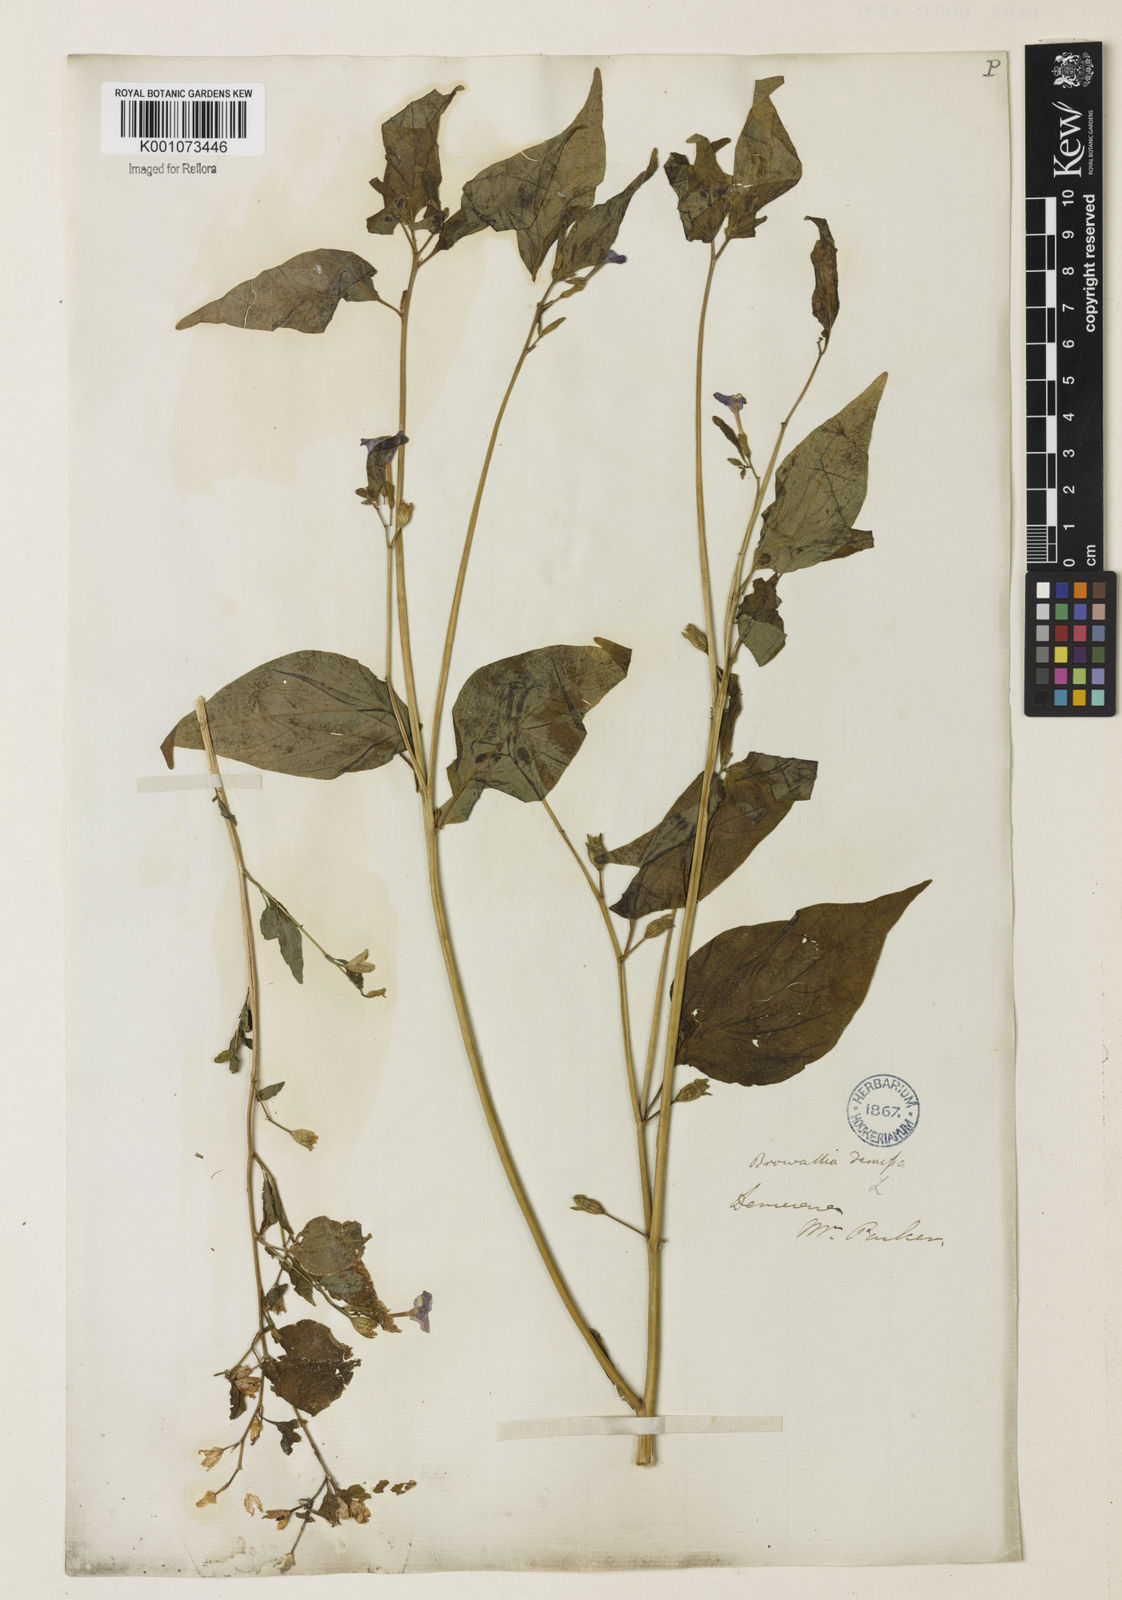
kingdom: Plantae
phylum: Tracheophyta
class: Magnoliopsida
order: Solanales
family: Solanaceae
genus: Browallia
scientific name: Browallia americana
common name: Jamaican forget-me-not
